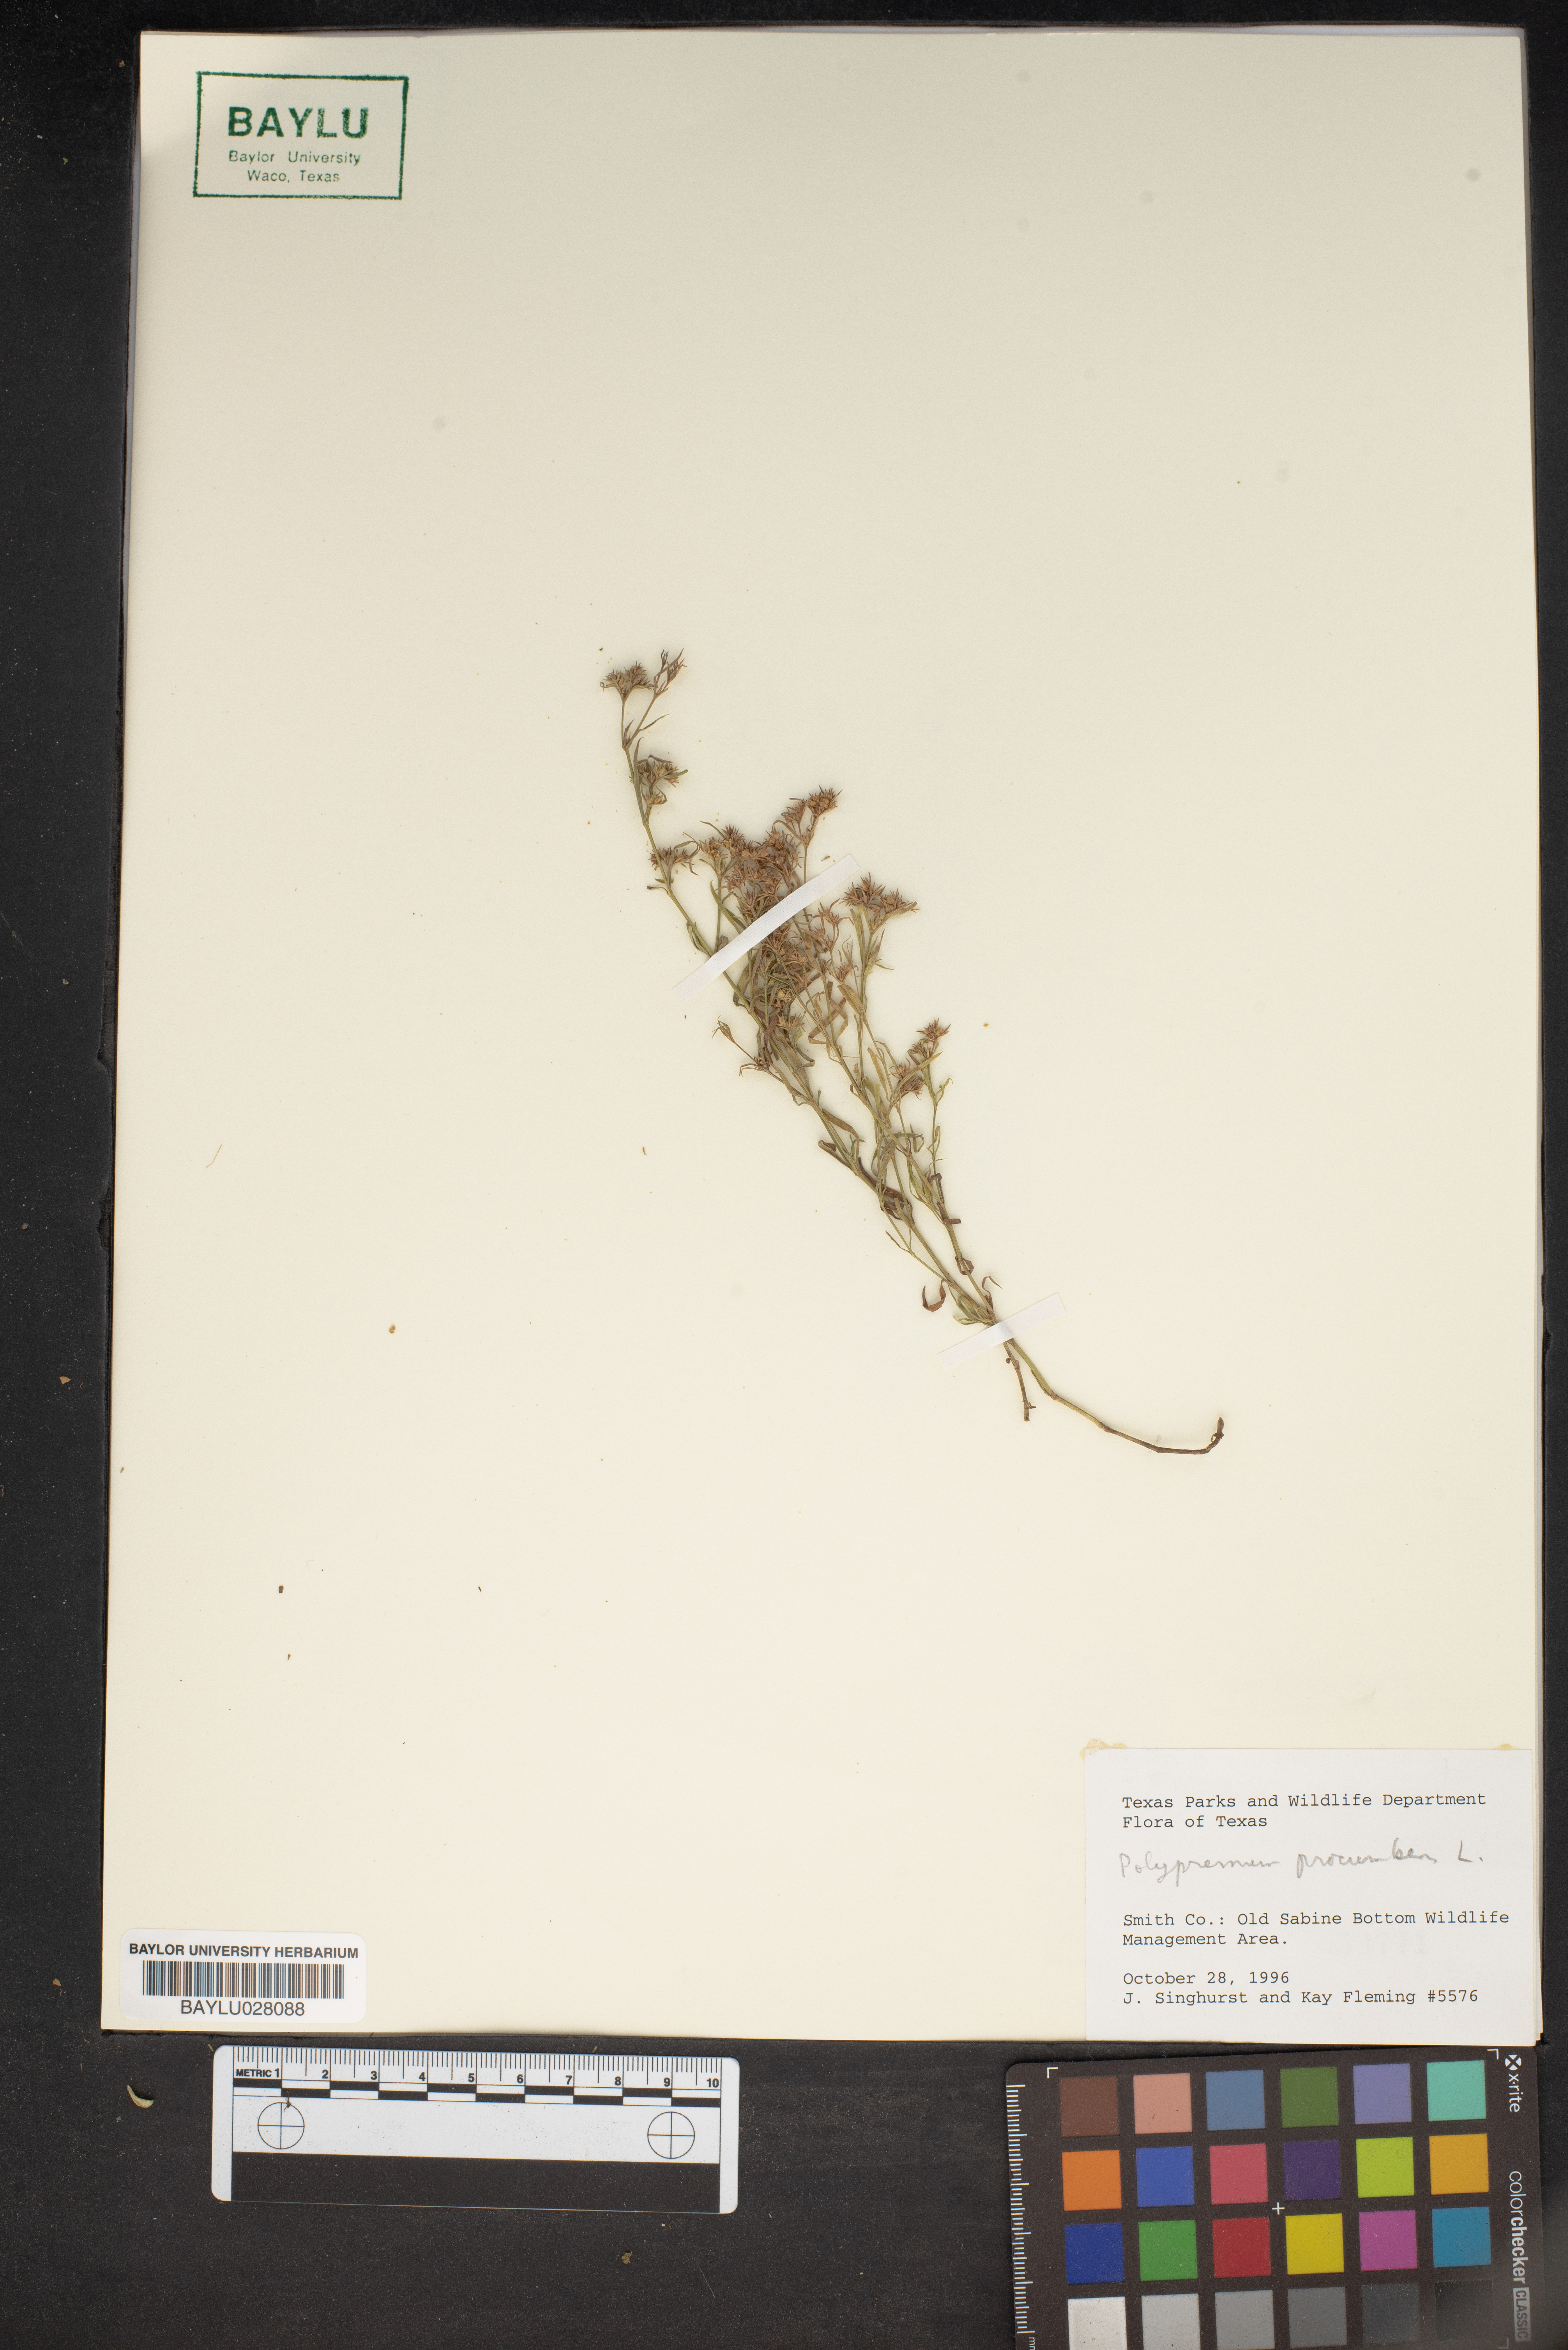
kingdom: Plantae
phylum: Tracheophyta
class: Magnoliopsida
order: Lamiales
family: Tetrachondraceae
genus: Polypremum
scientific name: Polypremum procumbens
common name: Juniper-leaf
